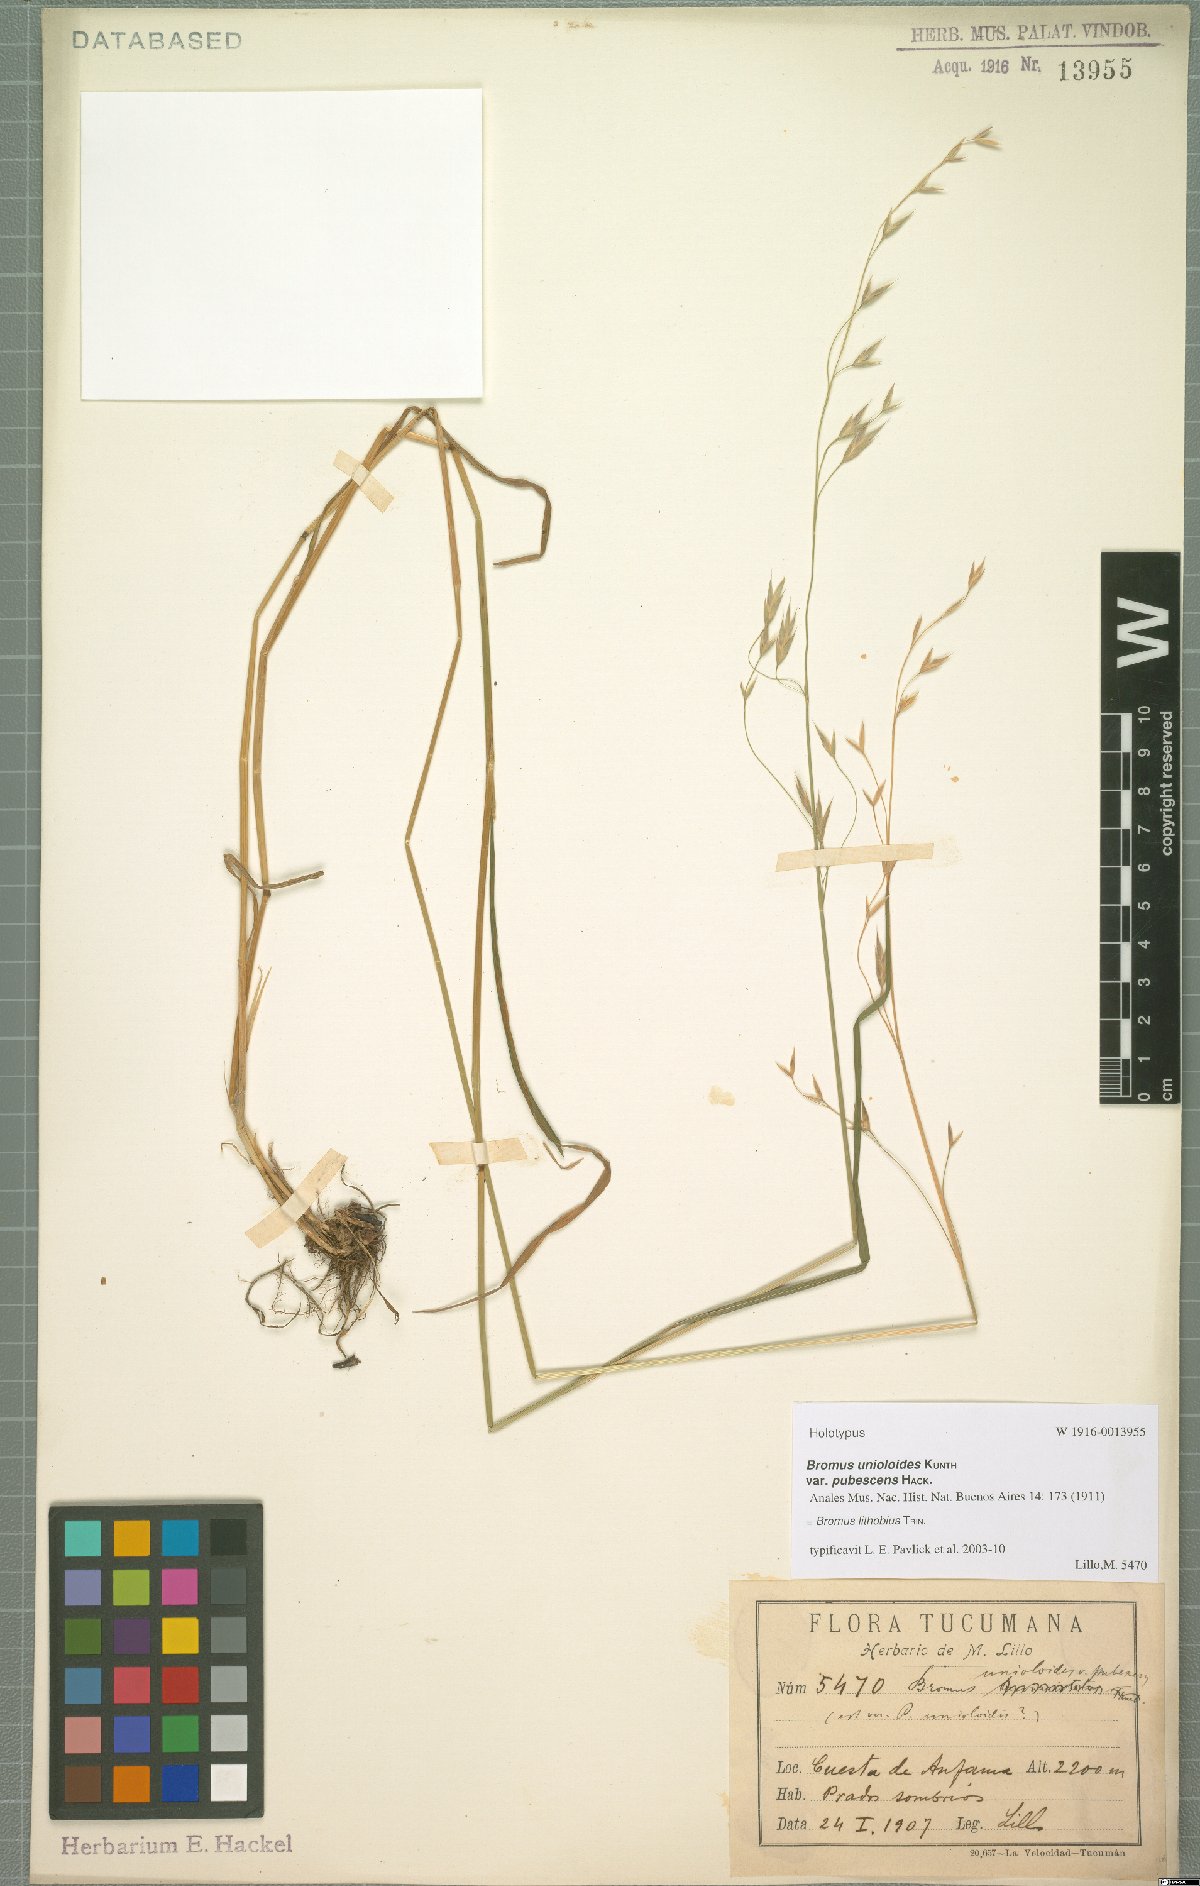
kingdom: Plantae
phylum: Tracheophyta
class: Liliopsida
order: Poales
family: Poaceae
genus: Bromus
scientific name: Bromus lithobius
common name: Chilean brome
